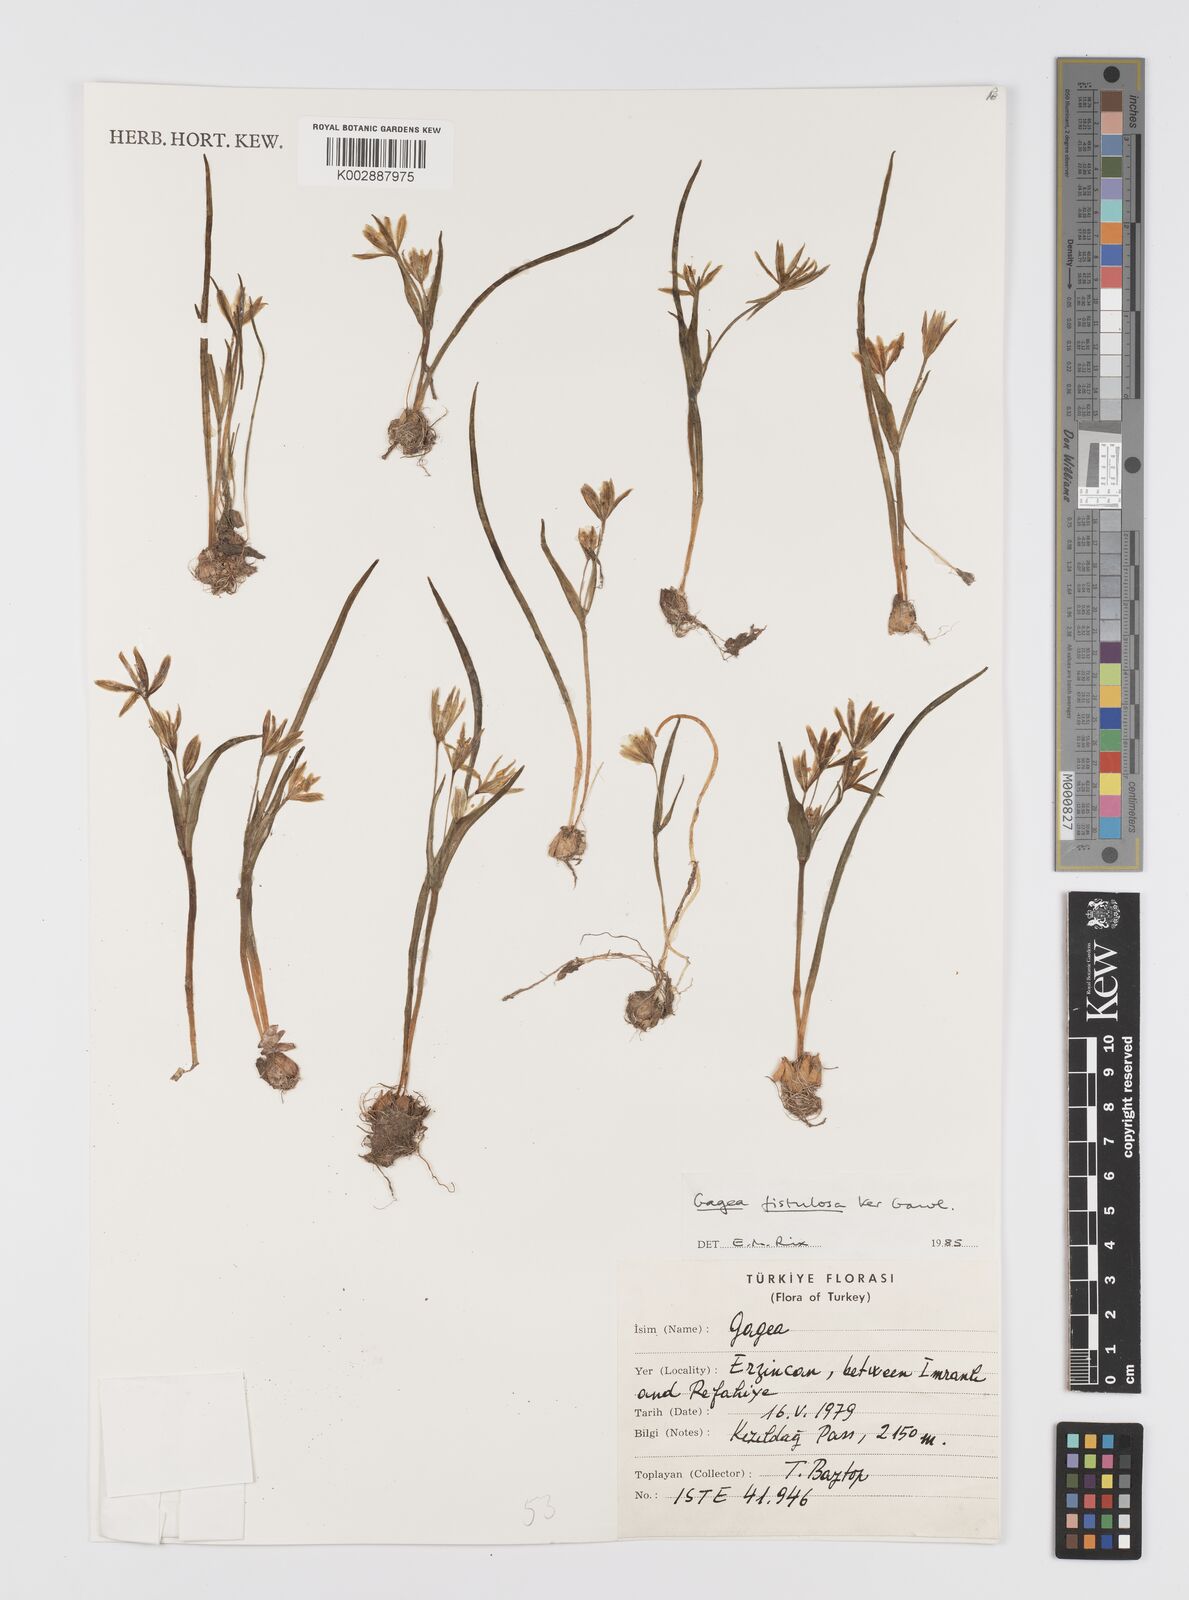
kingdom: Plantae
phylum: Tracheophyta
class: Liliopsida
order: Liliales
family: Liliaceae
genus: Gagea
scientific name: Gagea bohemica
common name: Early star-of-bethlehem
